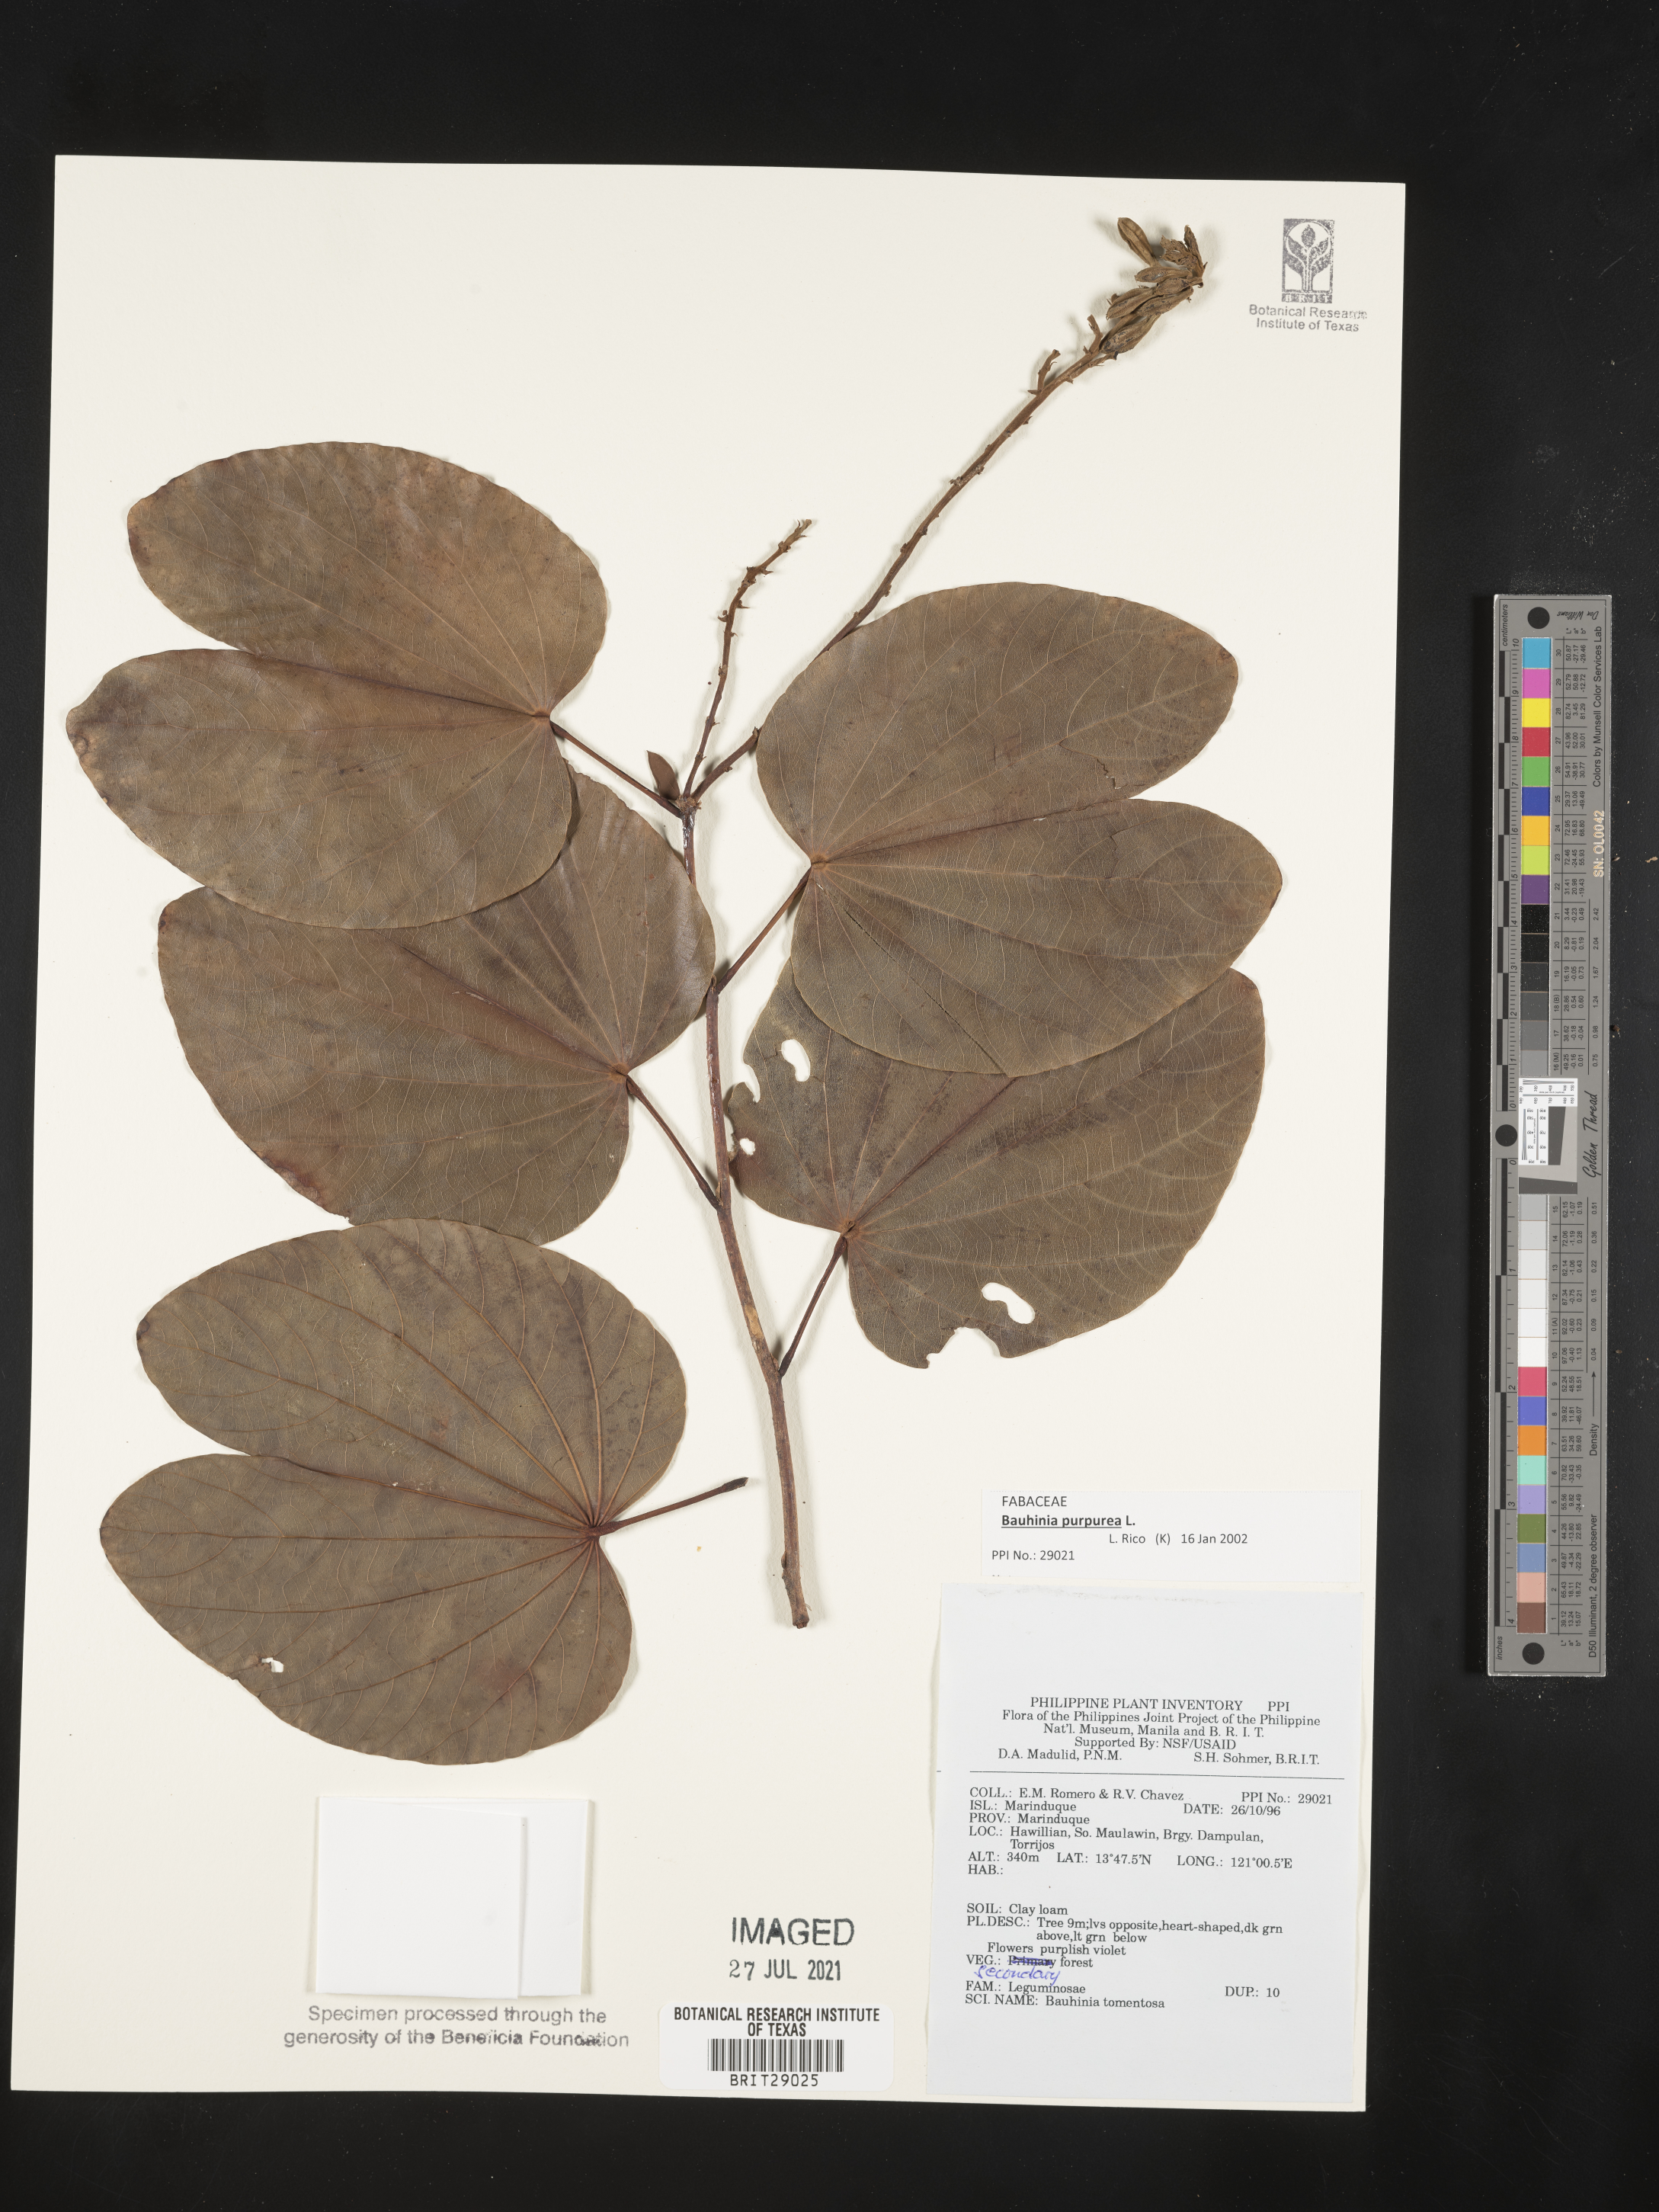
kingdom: Plantae
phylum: Tracheophyta
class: Magnoliopsida
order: Fabales
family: Fabaceae
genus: Bauhinia
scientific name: Bauhinia purpurea
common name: Butterfly-tree
